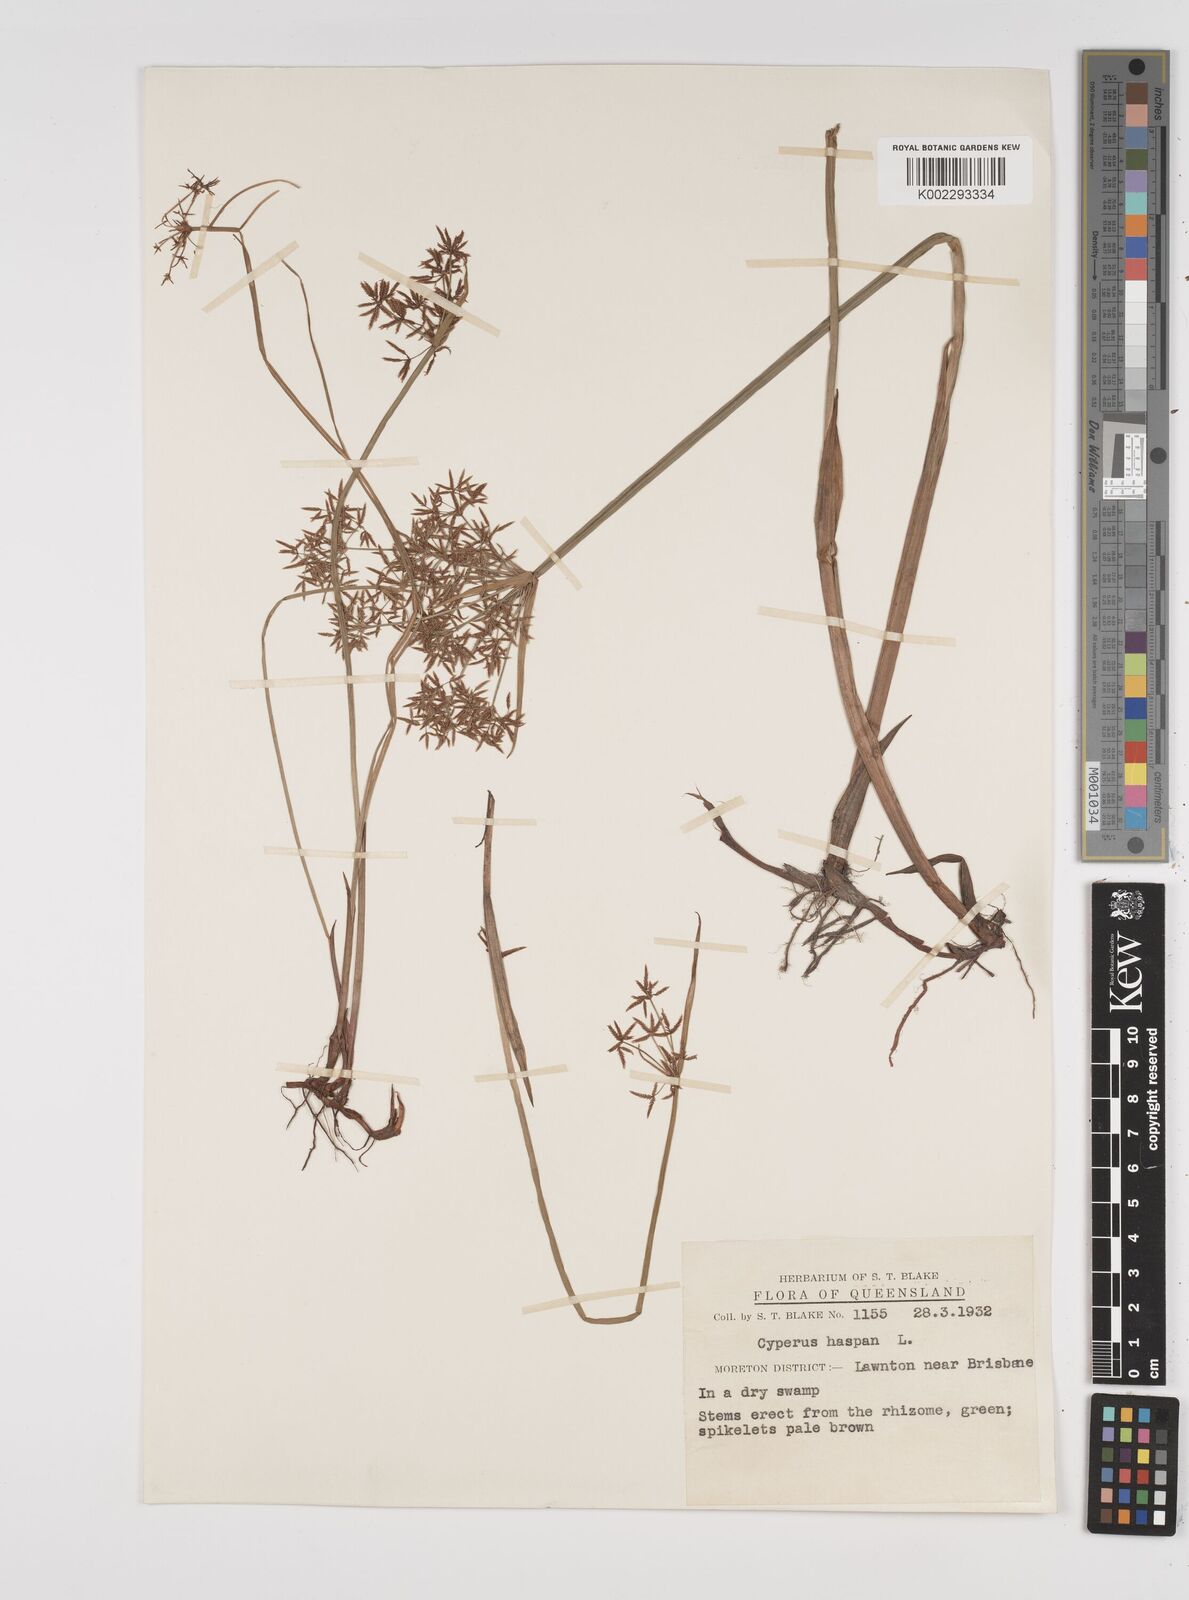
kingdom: Plantae
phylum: Tracheophyta
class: Liliopsida
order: Poales
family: Cyperaceae
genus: Cyperus
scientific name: Cyperus haspan
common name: Haspan flatsedge
